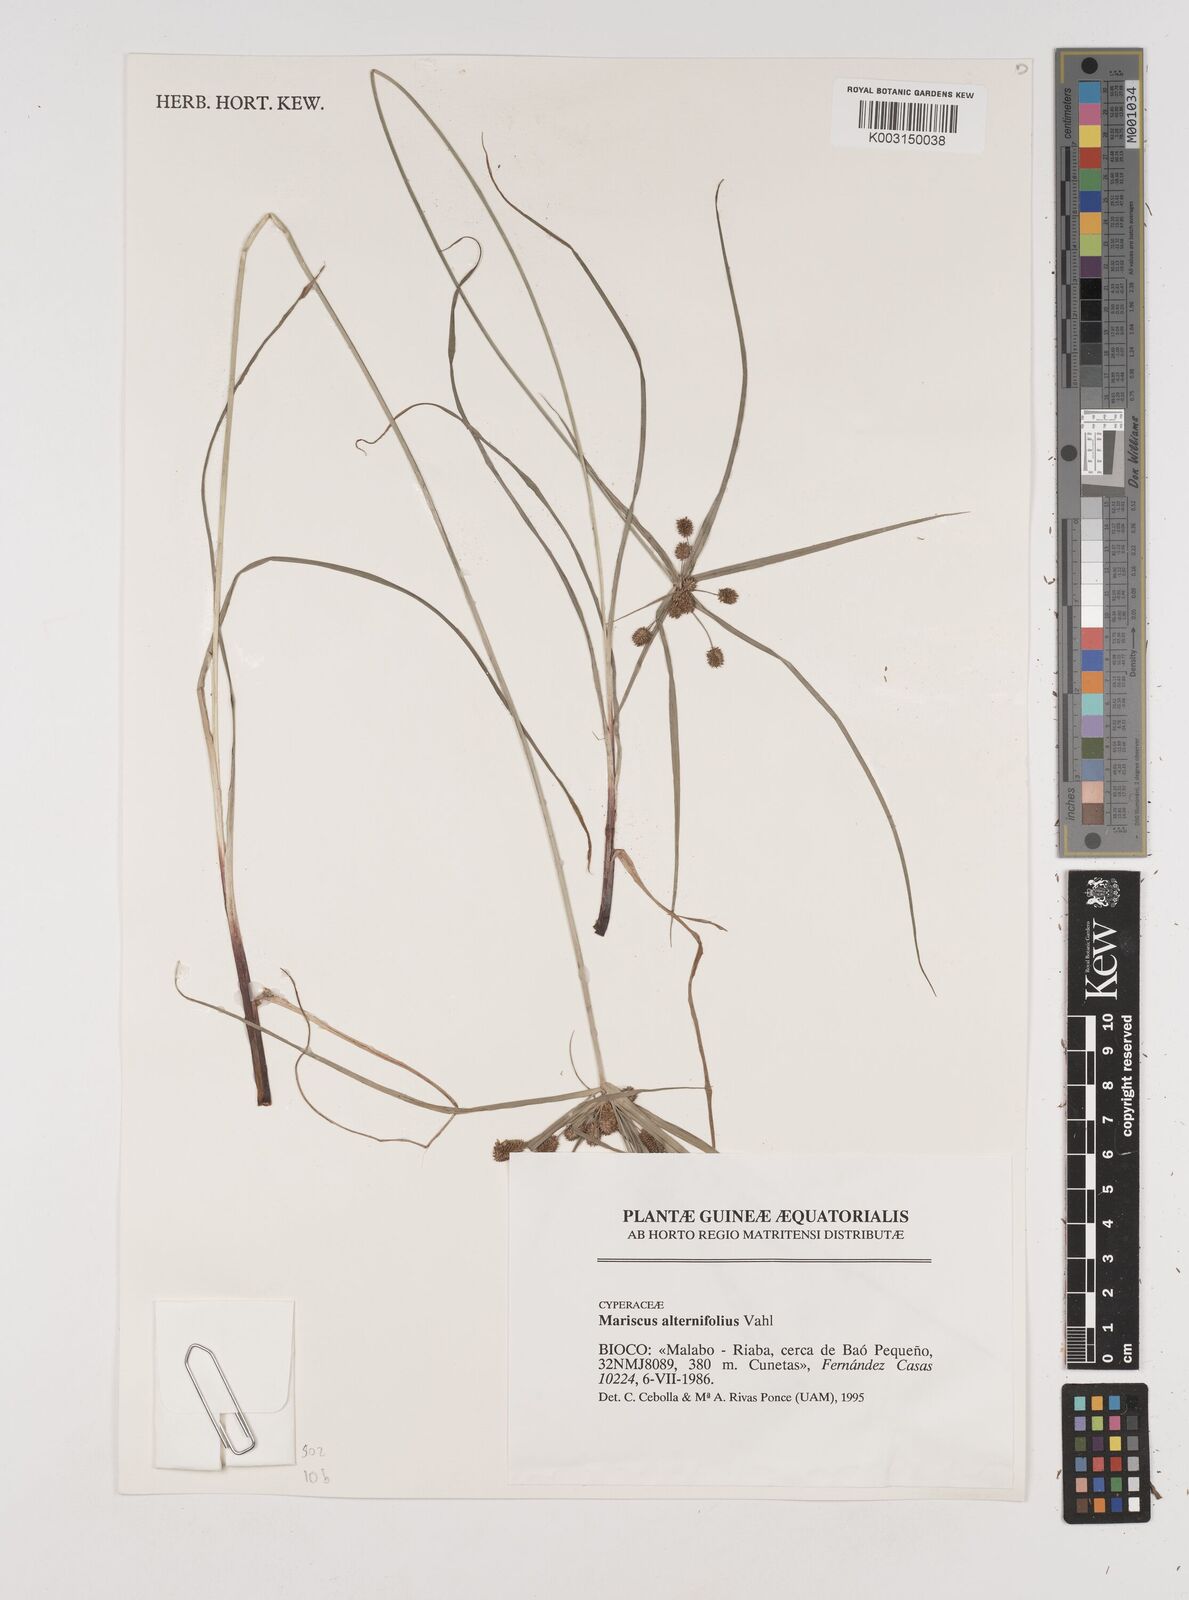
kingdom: Plantae
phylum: Tracheophyta
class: Liliopsida
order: Poales
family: Cyperaceae
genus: Cyperus
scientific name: Cyperus cyperoides
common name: Pacific island flat sedge
